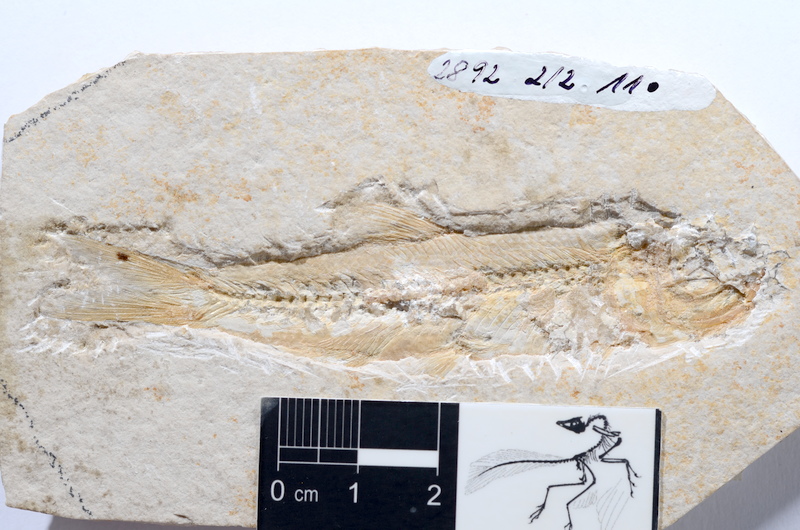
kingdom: Animalia
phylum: Chordata
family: Ascalaboidae
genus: Ascalabos
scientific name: Ascalabos voithii
